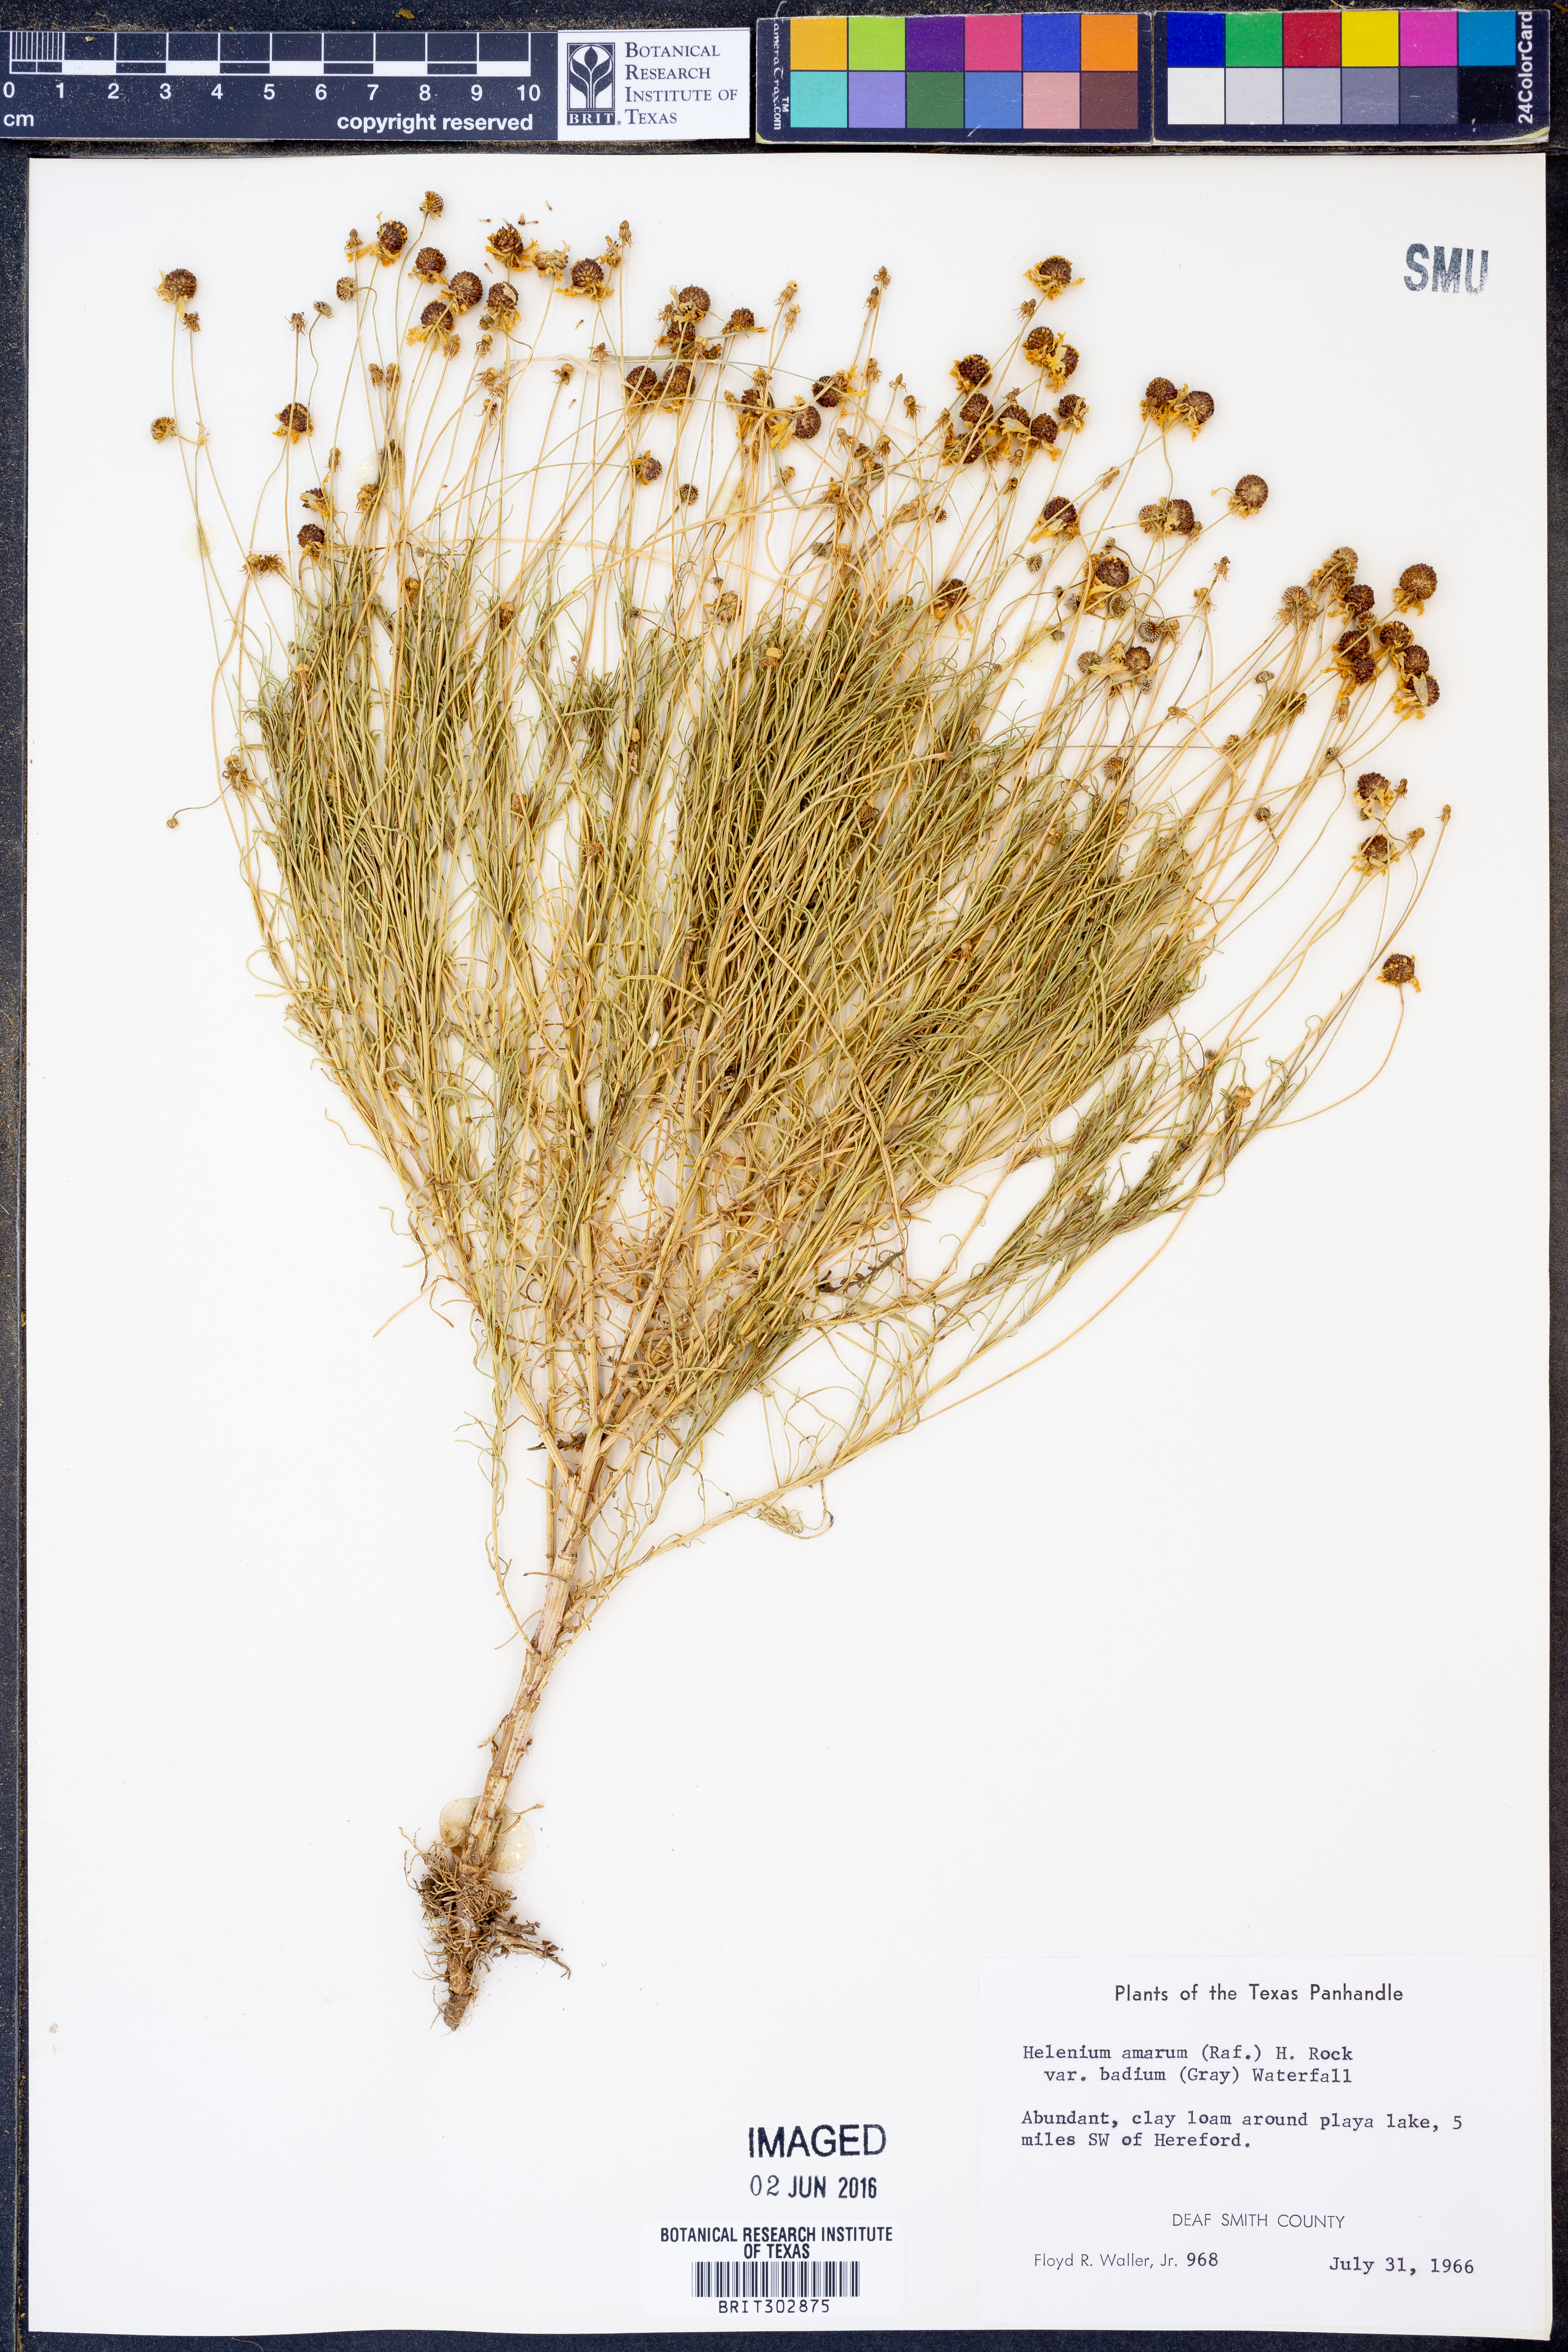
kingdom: Plantae
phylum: Tracheophyta
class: Magnoliopsida
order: Asterales
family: Asteraceae
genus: Helenium
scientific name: Helenium amarum
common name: Bitter sneezeweed
